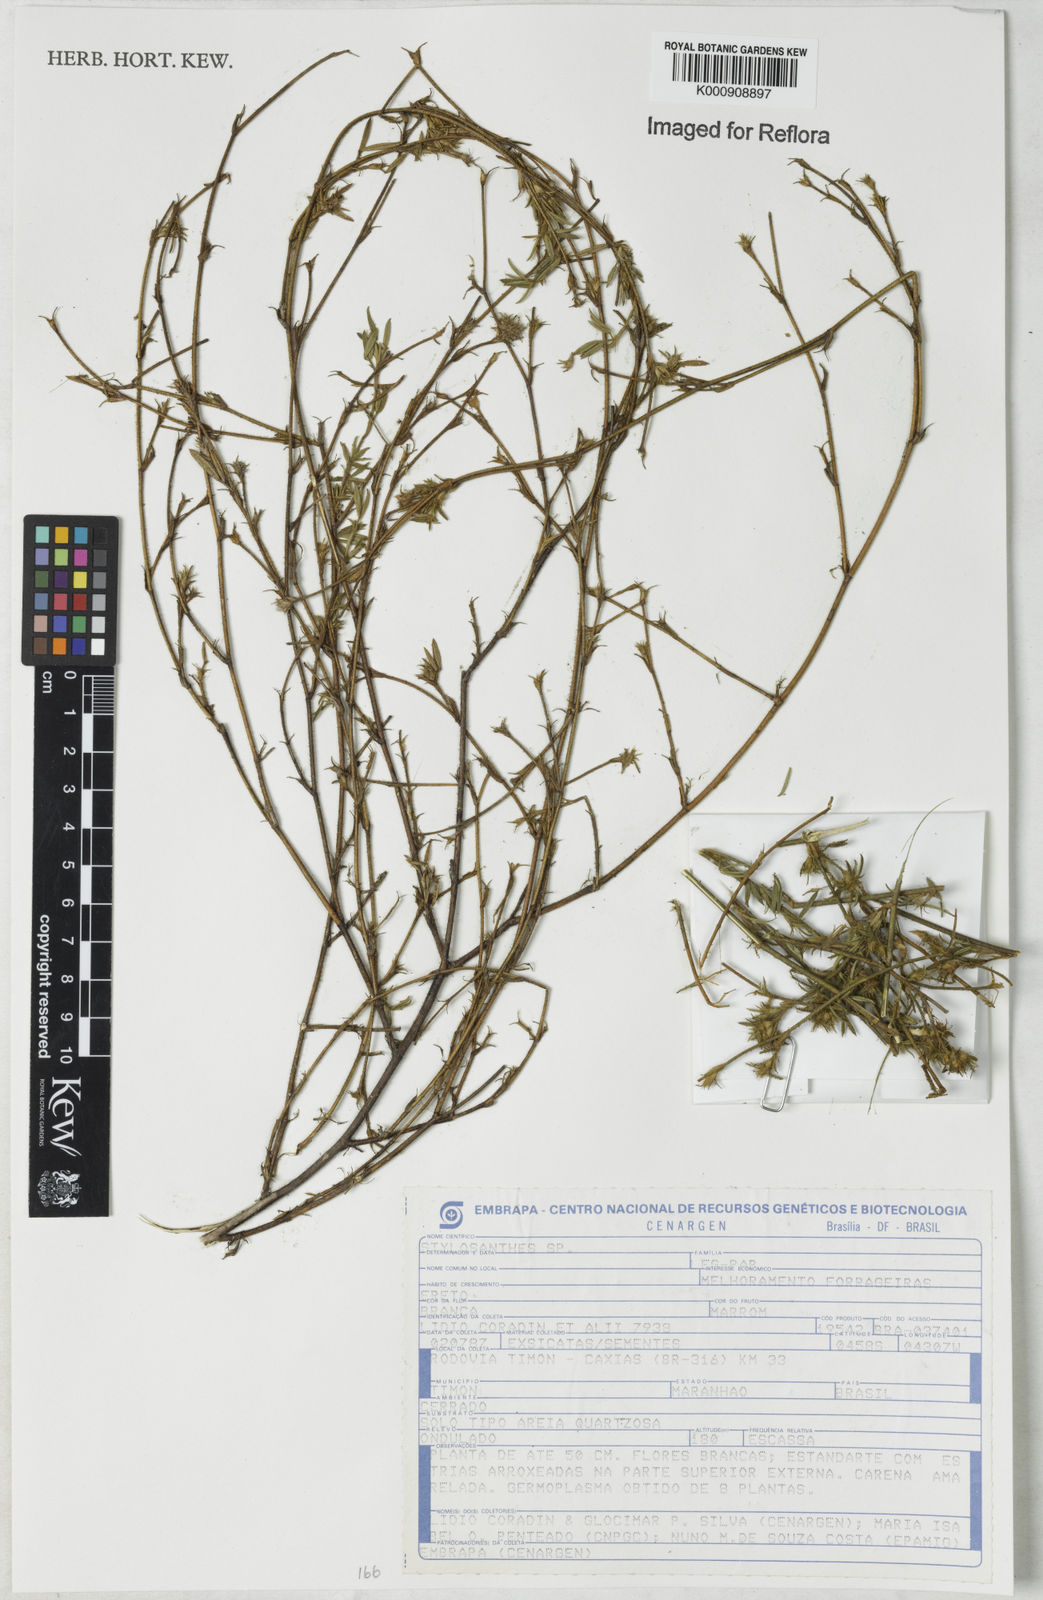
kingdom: Plantae
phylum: Tracheophyta
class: Magnoliopsida
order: Fabales
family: Fabaceae
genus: Stylosanthes
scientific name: Stylosanthes
